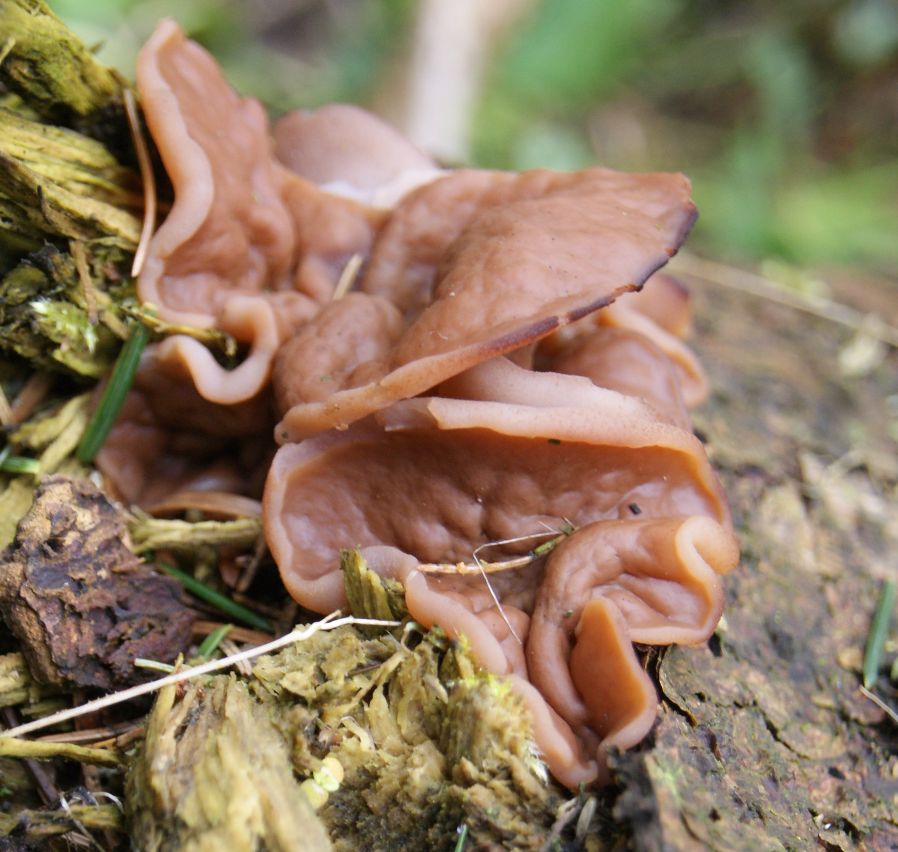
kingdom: Fungi
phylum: Ascomycota
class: Pezizomycetes
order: Pezizales
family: Discinaceae
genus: Discina
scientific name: Discina ancilis
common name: udbredt stenmorkel
